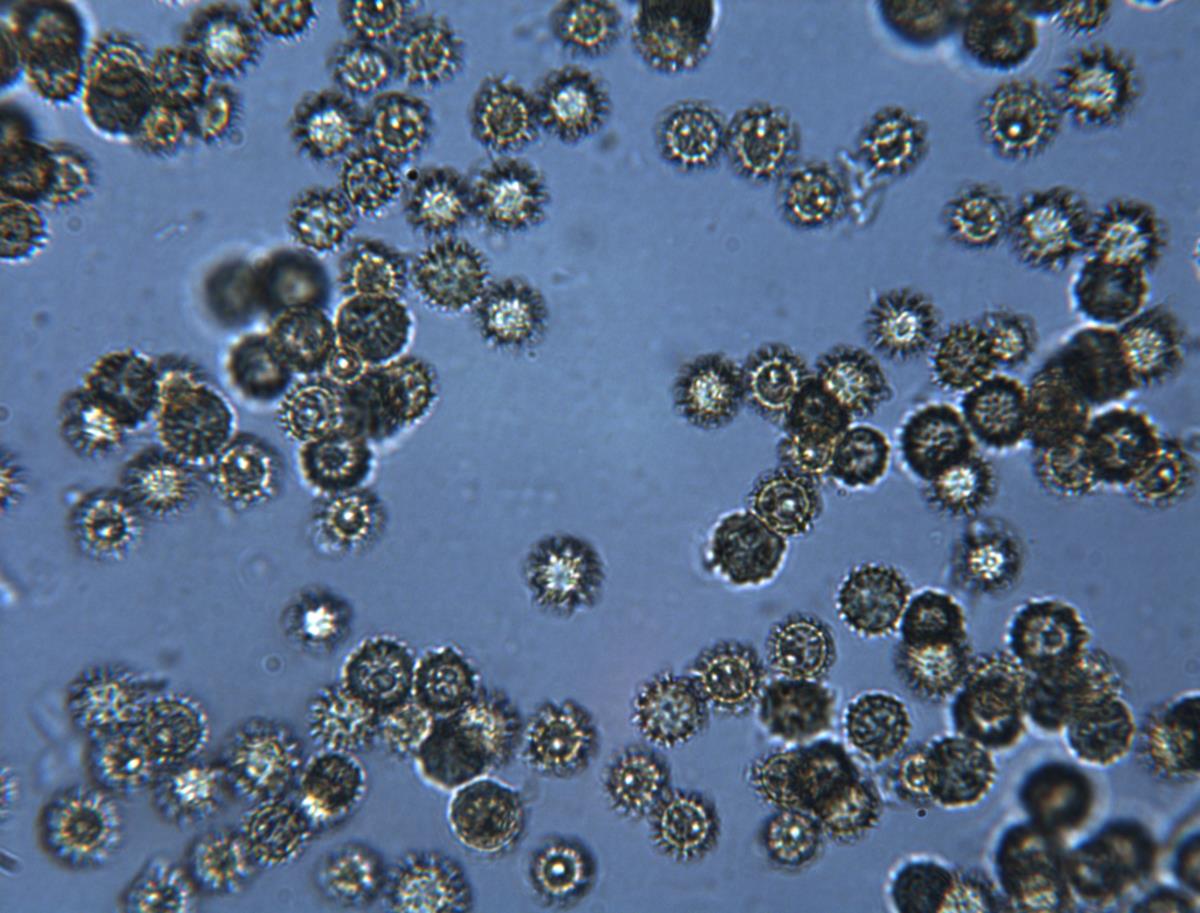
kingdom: Fungi
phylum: Basidiomycota
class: Agaricomycetes
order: Boletales
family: Sclerodermataceae
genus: Pisolithus
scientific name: Pisolithus albus
